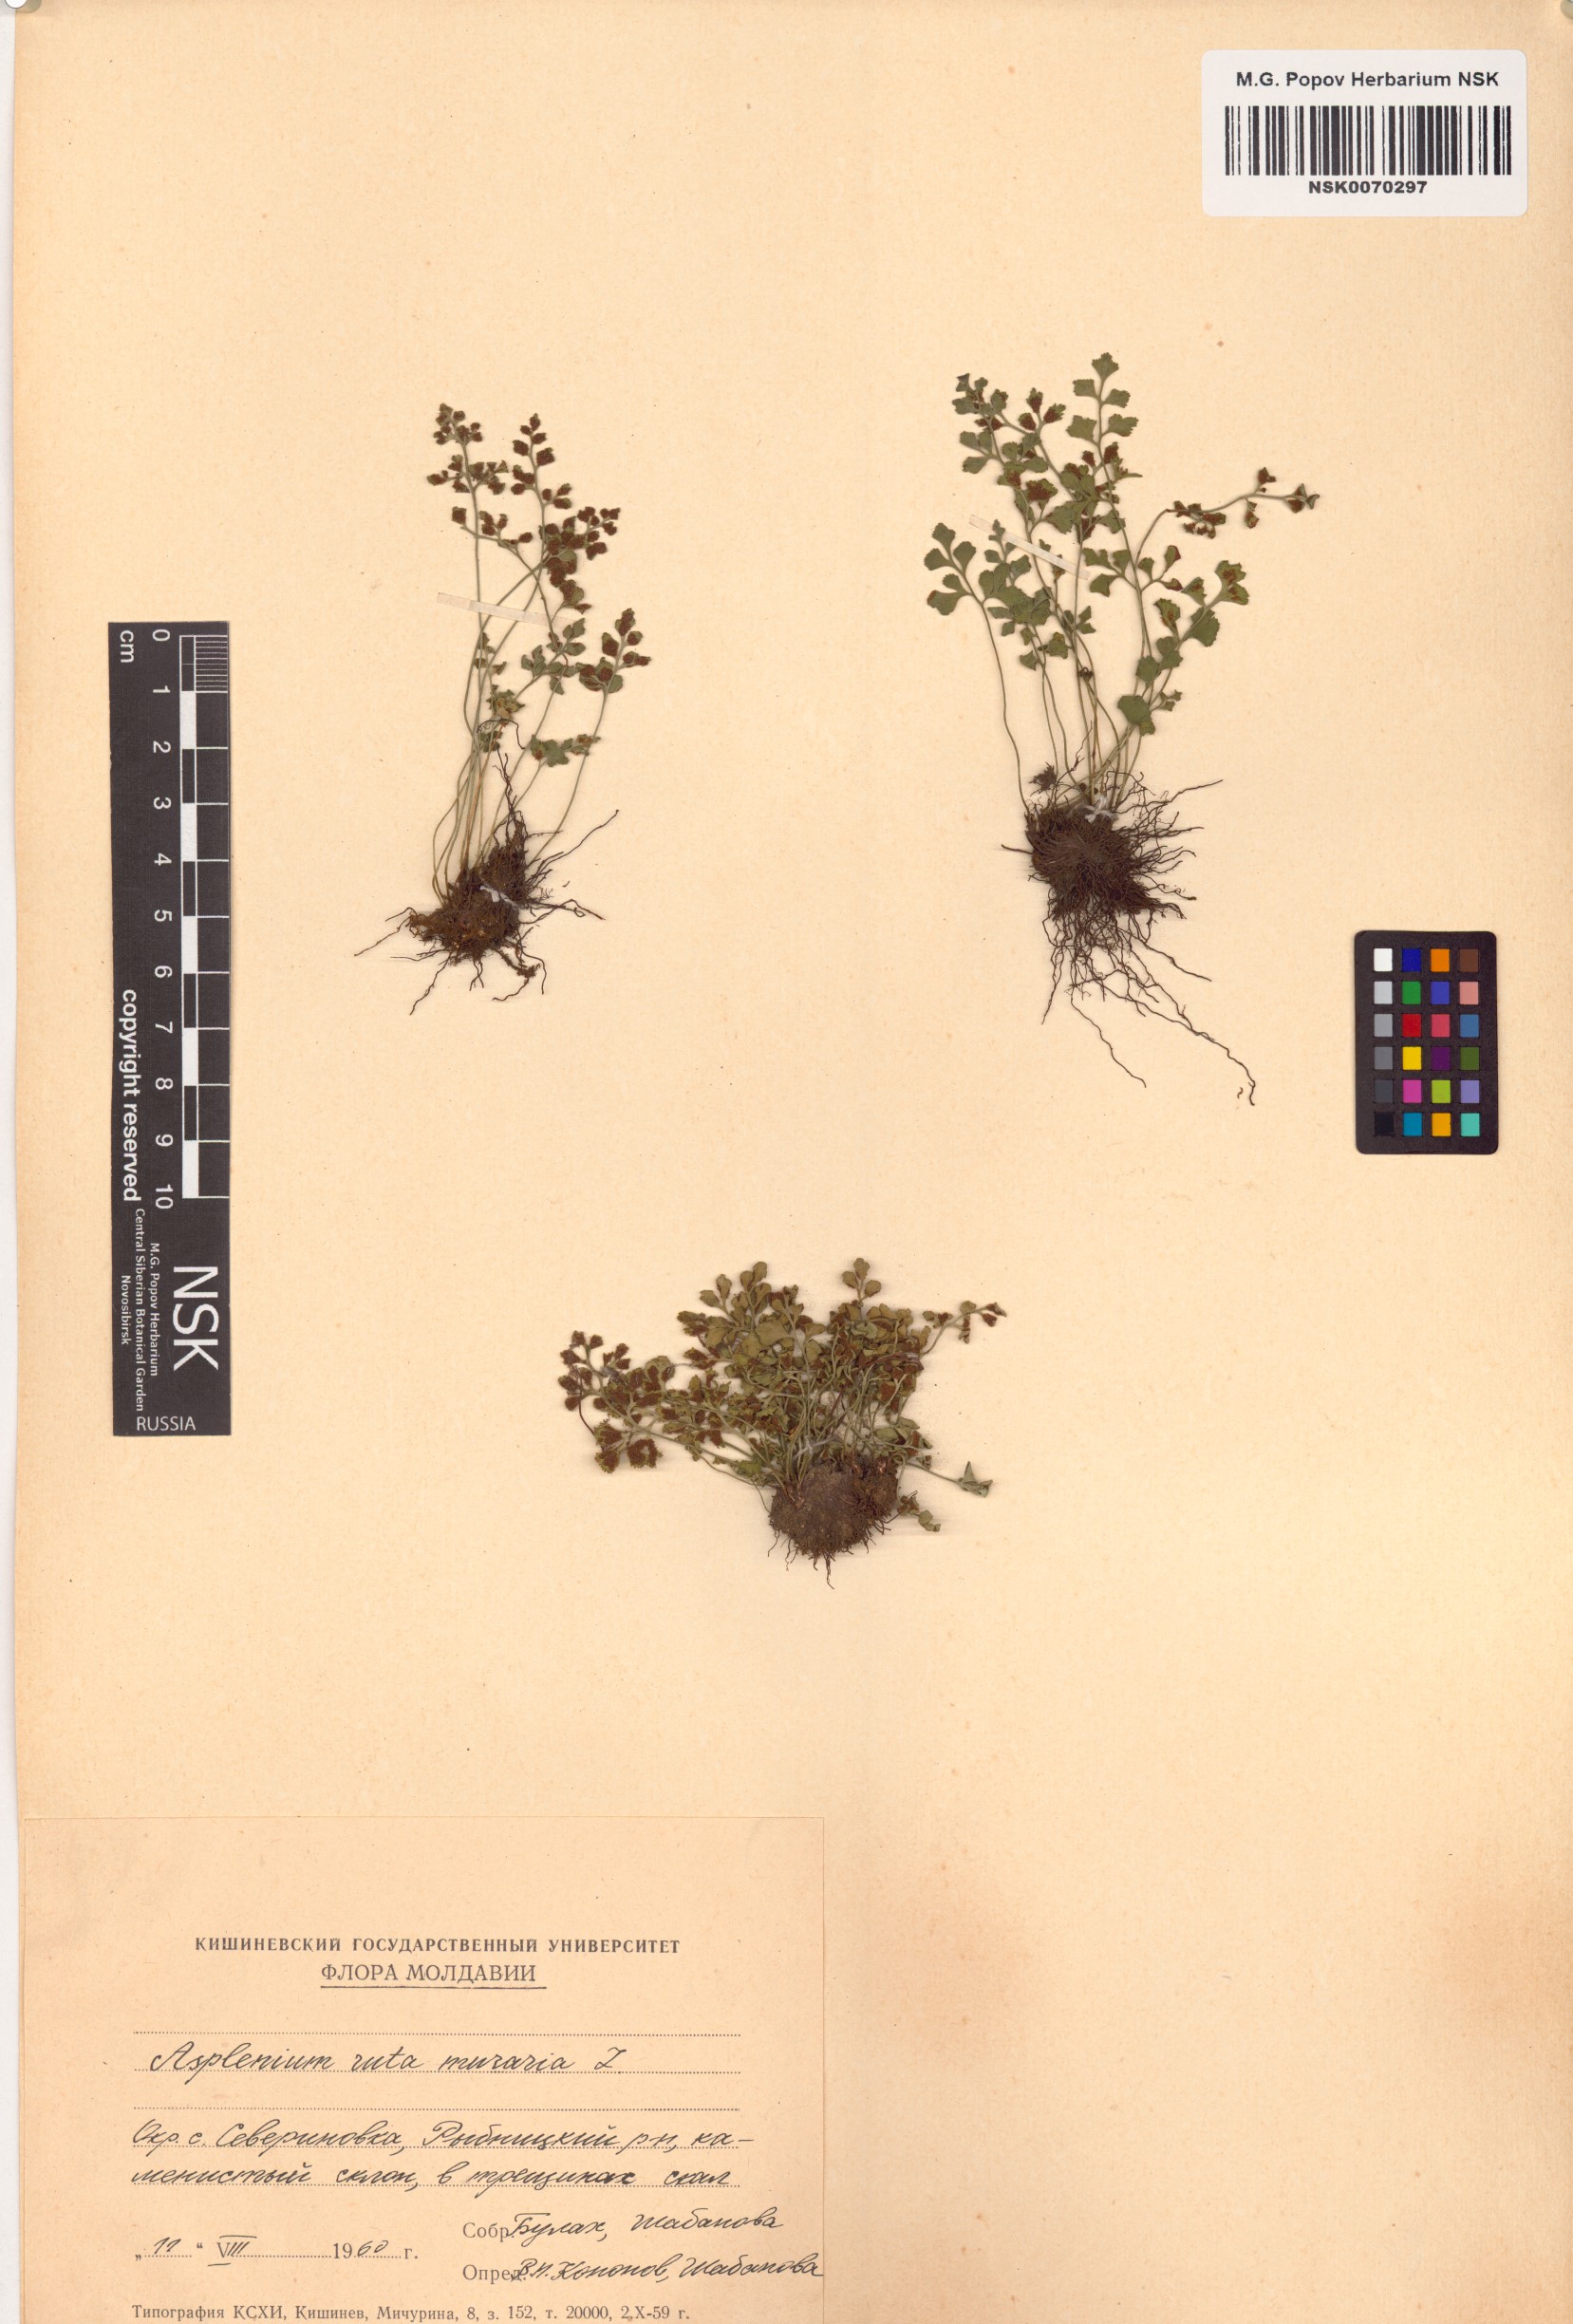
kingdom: Plantae
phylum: Tracheophyta
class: Polypodiopsida
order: Polypodiales
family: Aspleniaceae
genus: Asplenium
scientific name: Asplenium ruta-muraria
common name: Wall-rue
